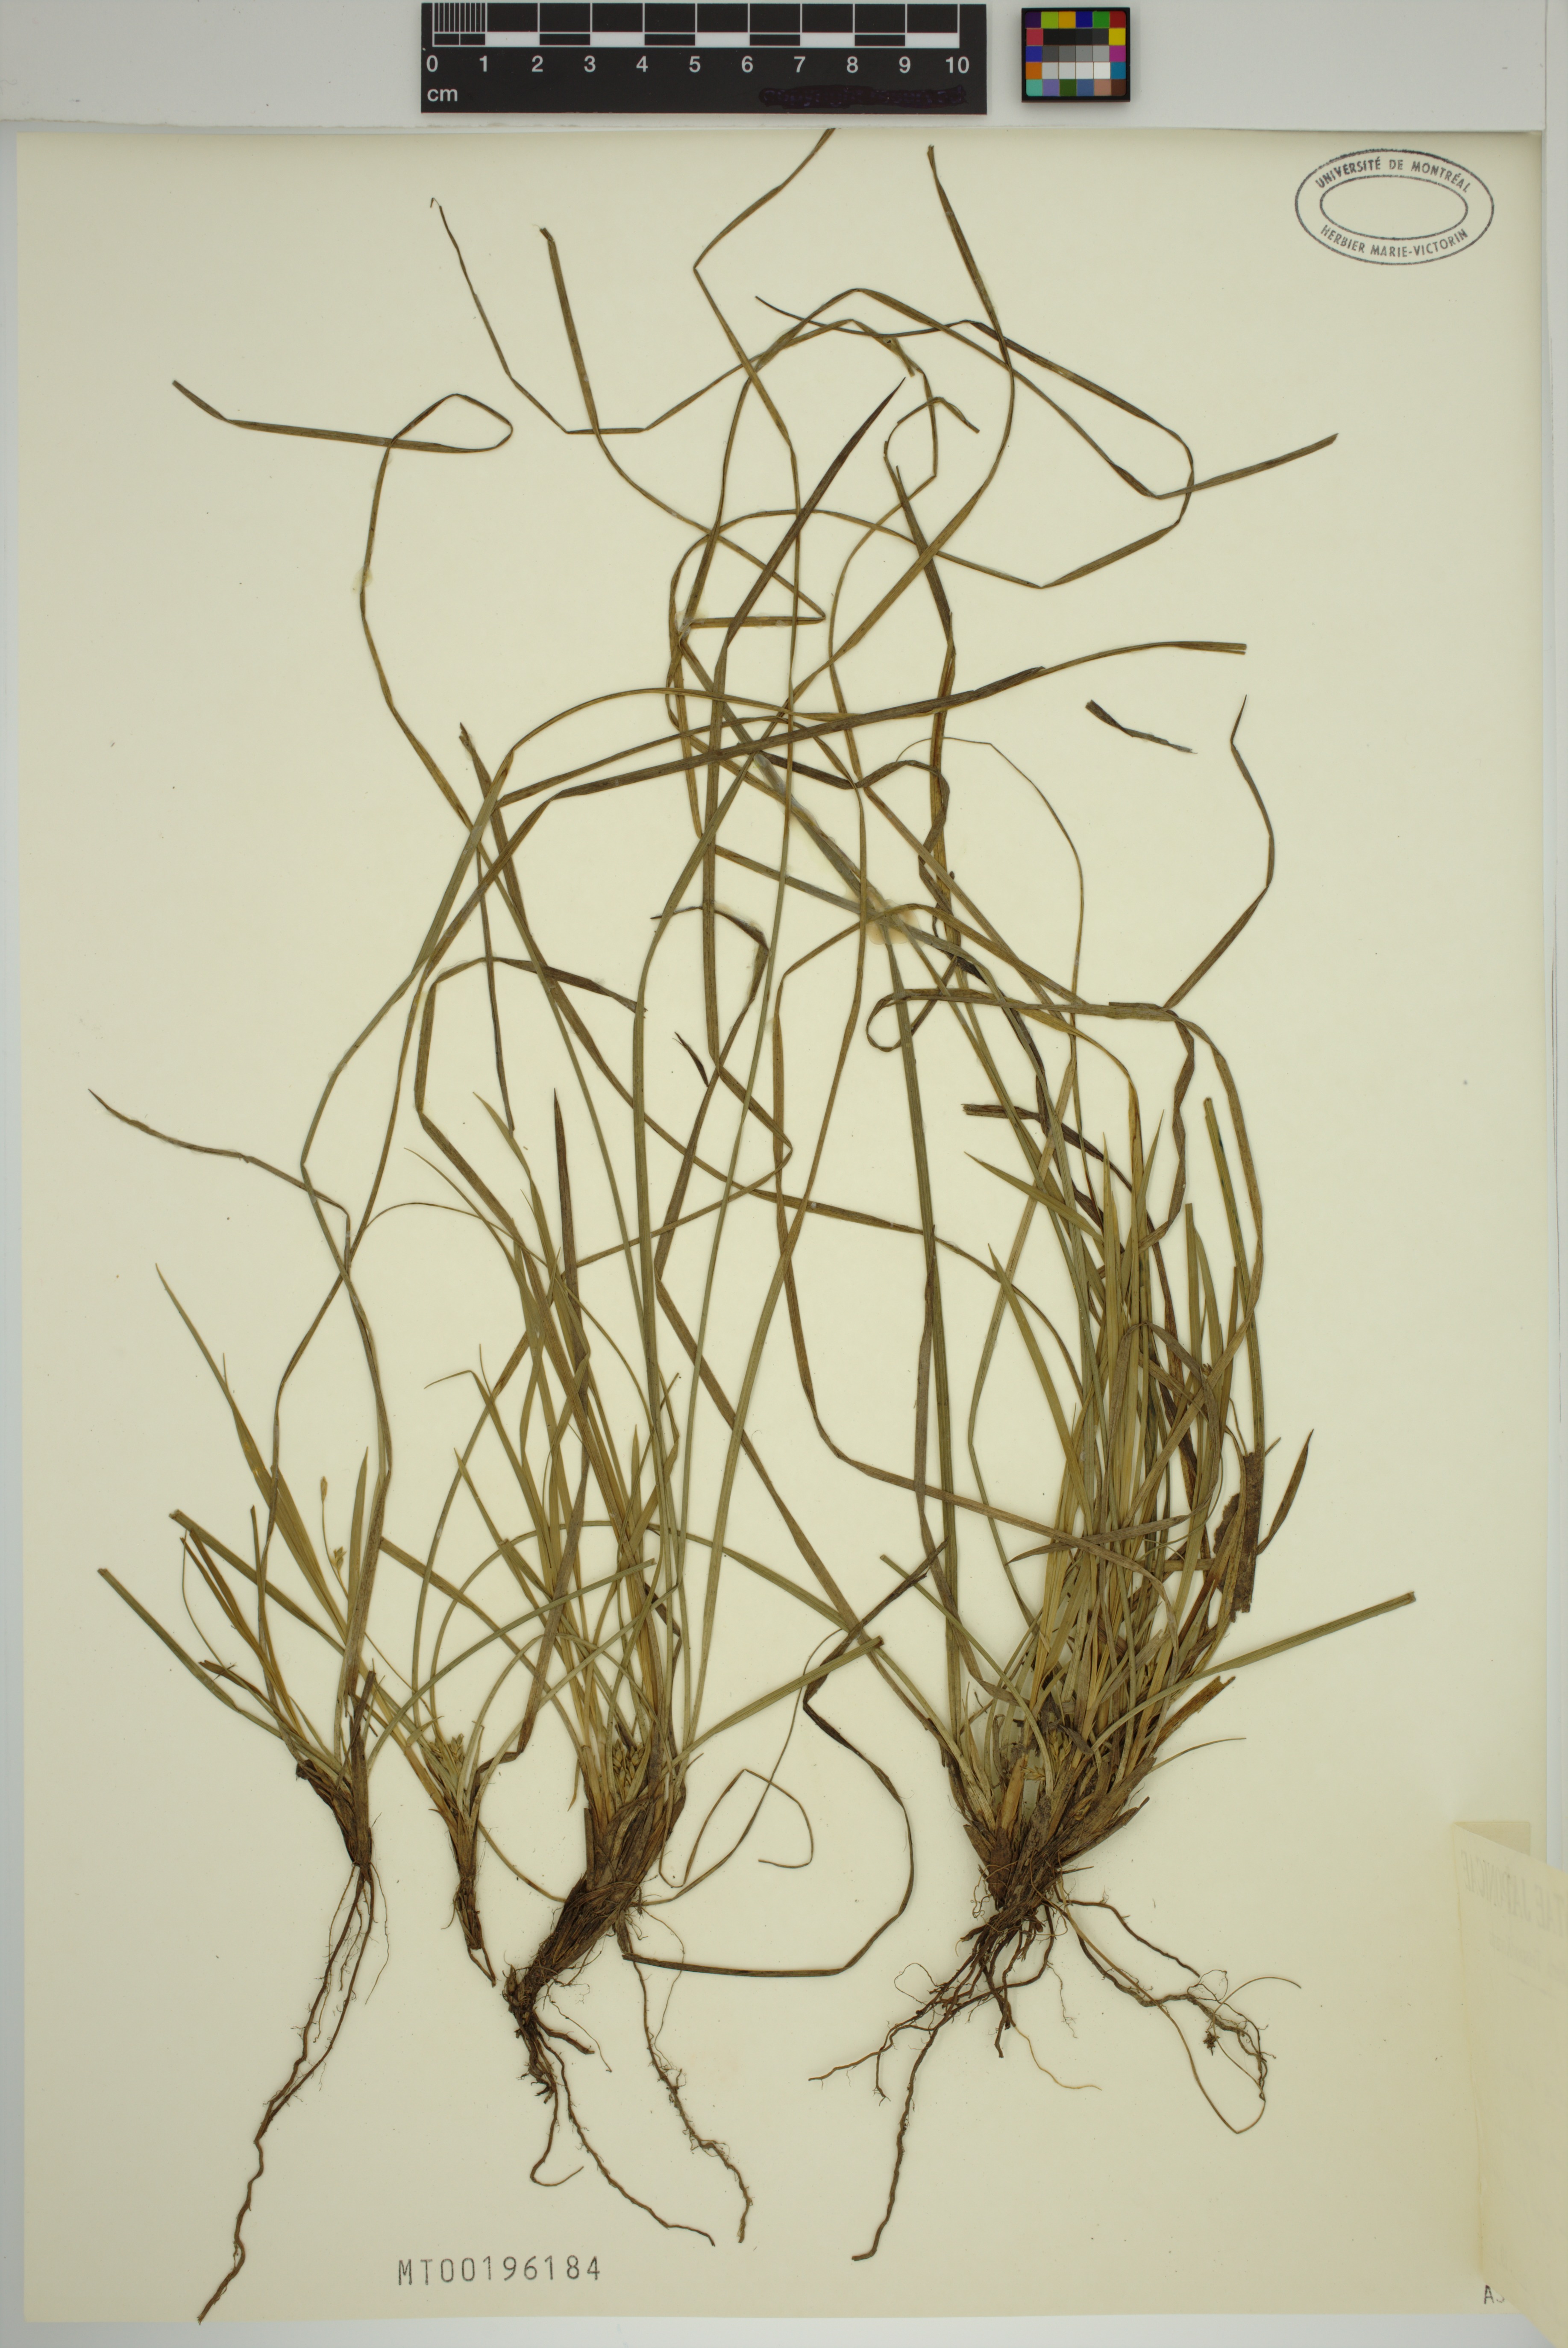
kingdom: Plantae
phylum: Tracheophyta
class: Liliopsida
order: Poales
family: Cyperaceae
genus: Carex
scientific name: Carex pudica
